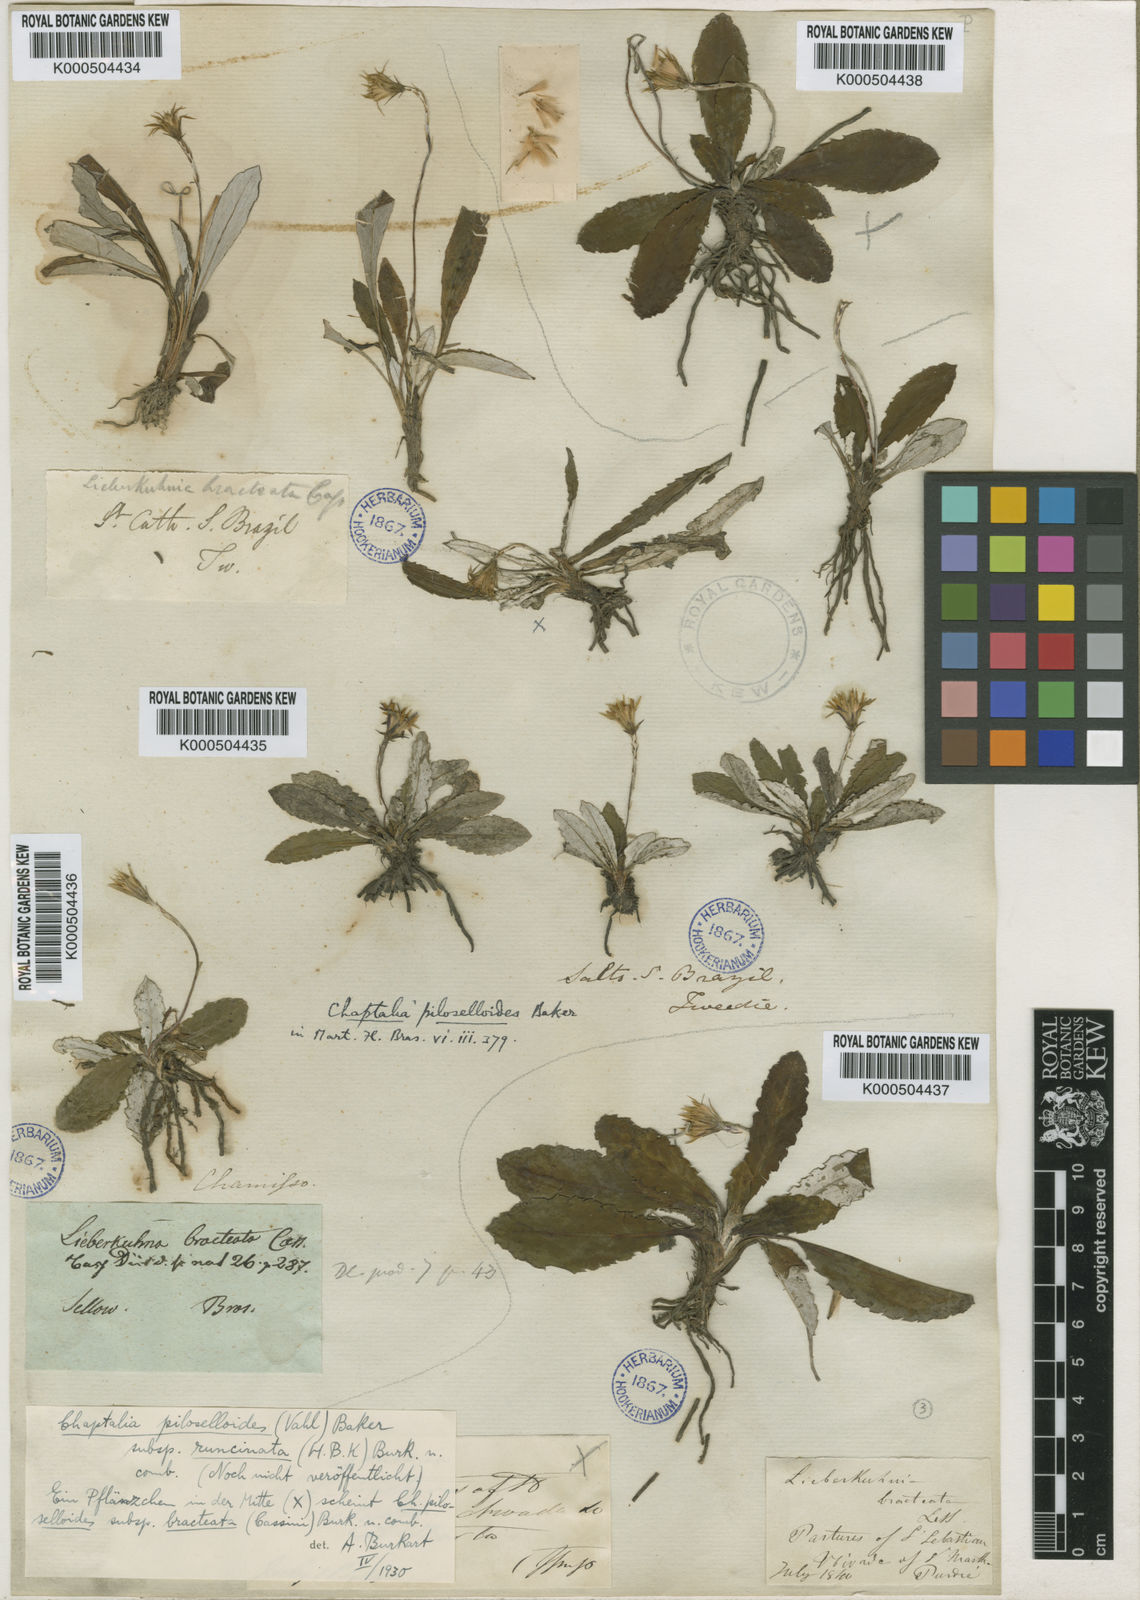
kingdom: Plantae
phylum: Tracheophyta
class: Magnoliopsida
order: Asterales
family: Asteraceae
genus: Chaptalia
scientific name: Chaptalia piloselloides
